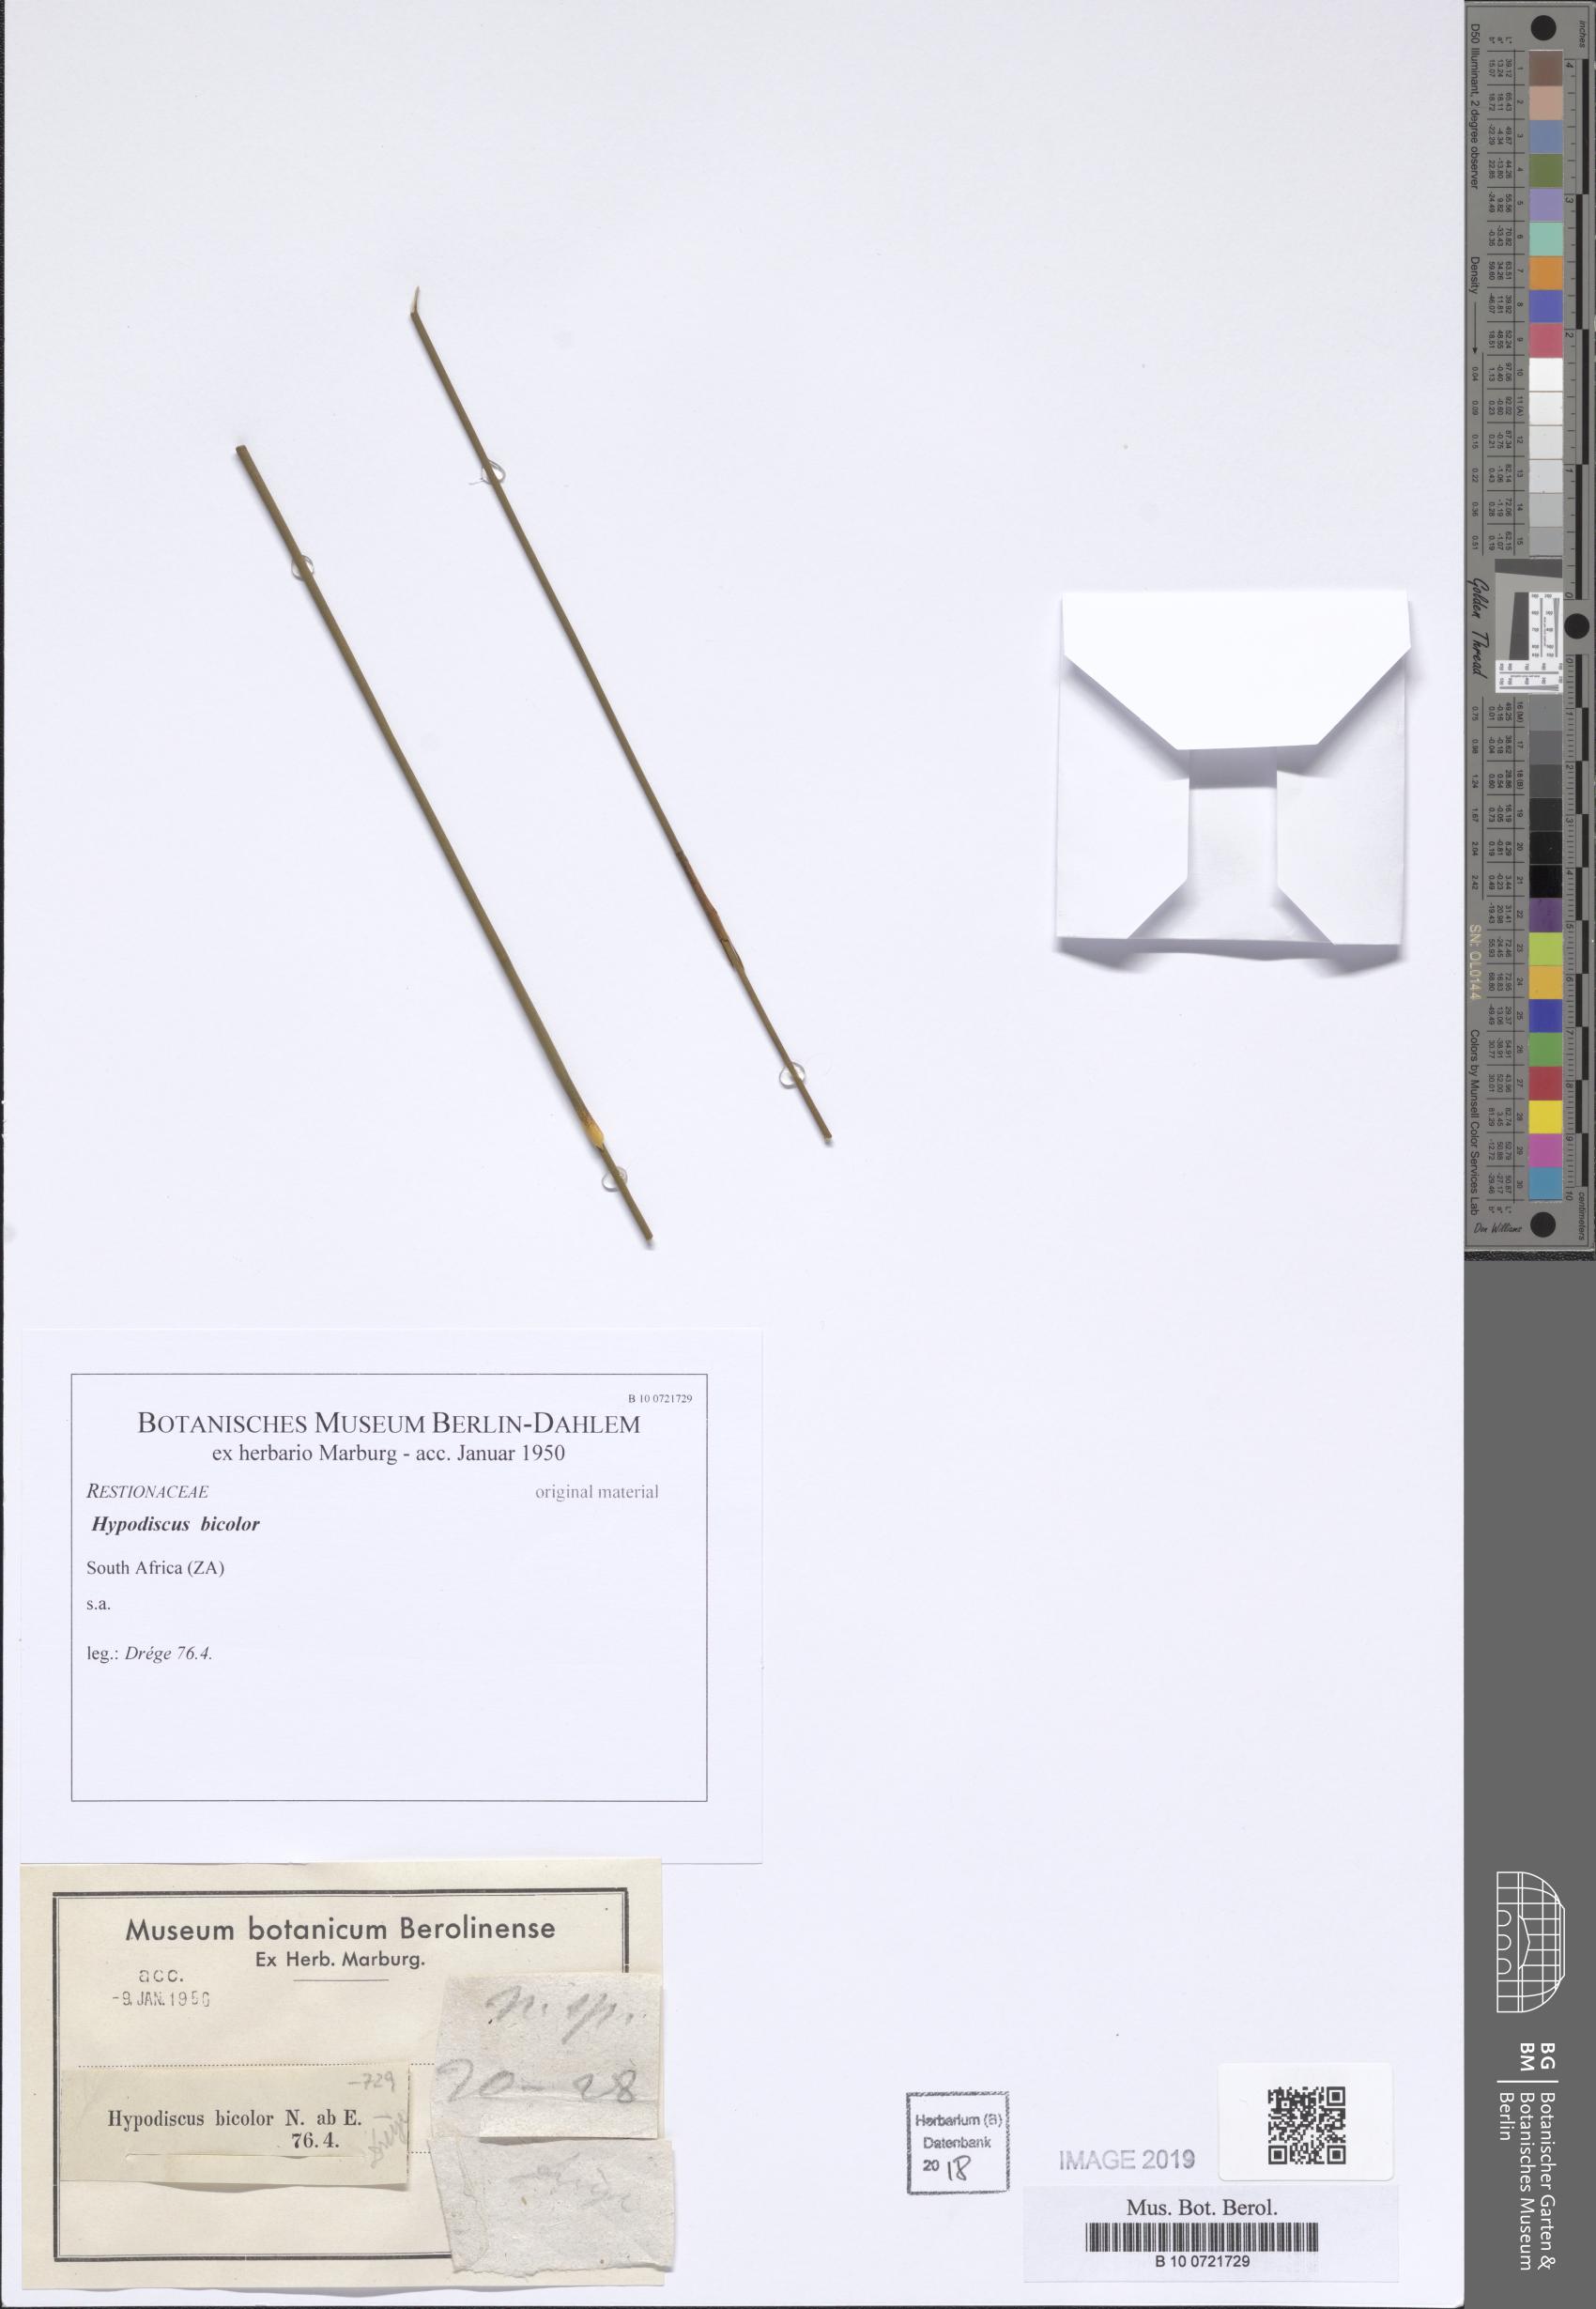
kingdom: Plantae
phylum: Tracheophyta
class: Liliopsida
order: Poales
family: Restionaceae
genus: Hypodiscus
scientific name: Hypodiscus
